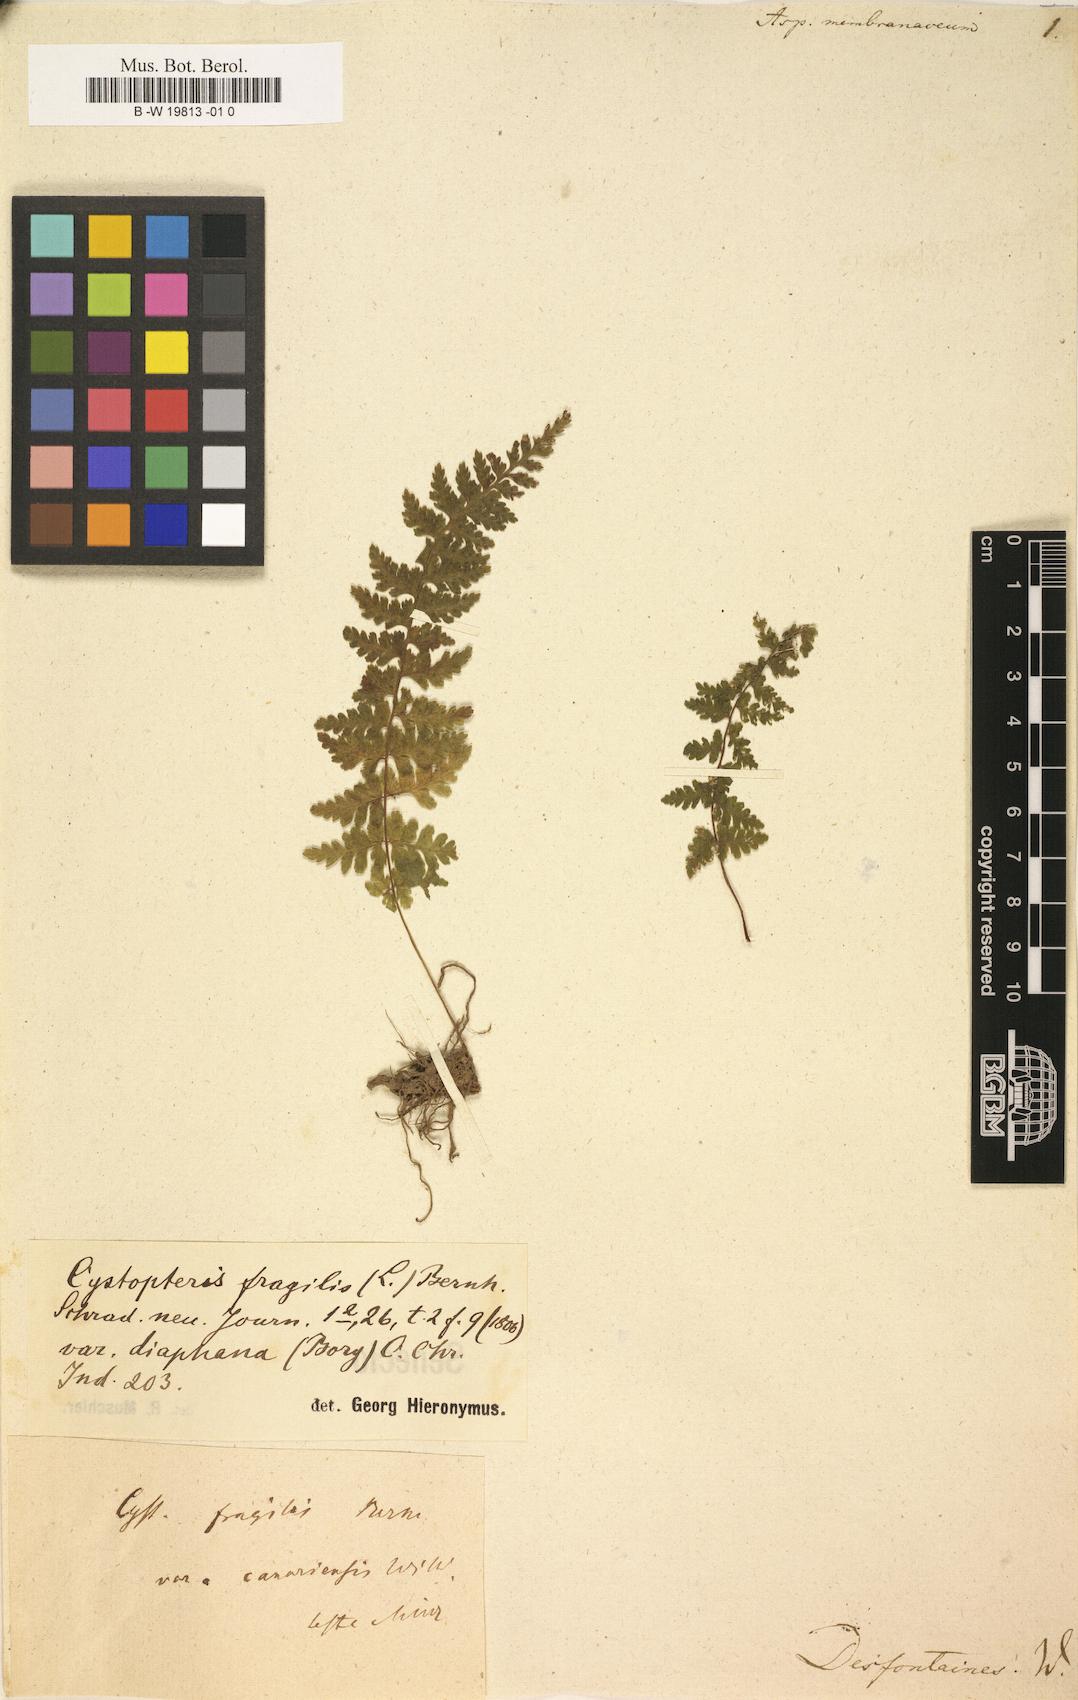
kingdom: Plantae
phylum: Tracheophyta
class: Polypodiopsida
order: Polypodiales
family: Tectariaceae
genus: Tectaria
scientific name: Tectaria
